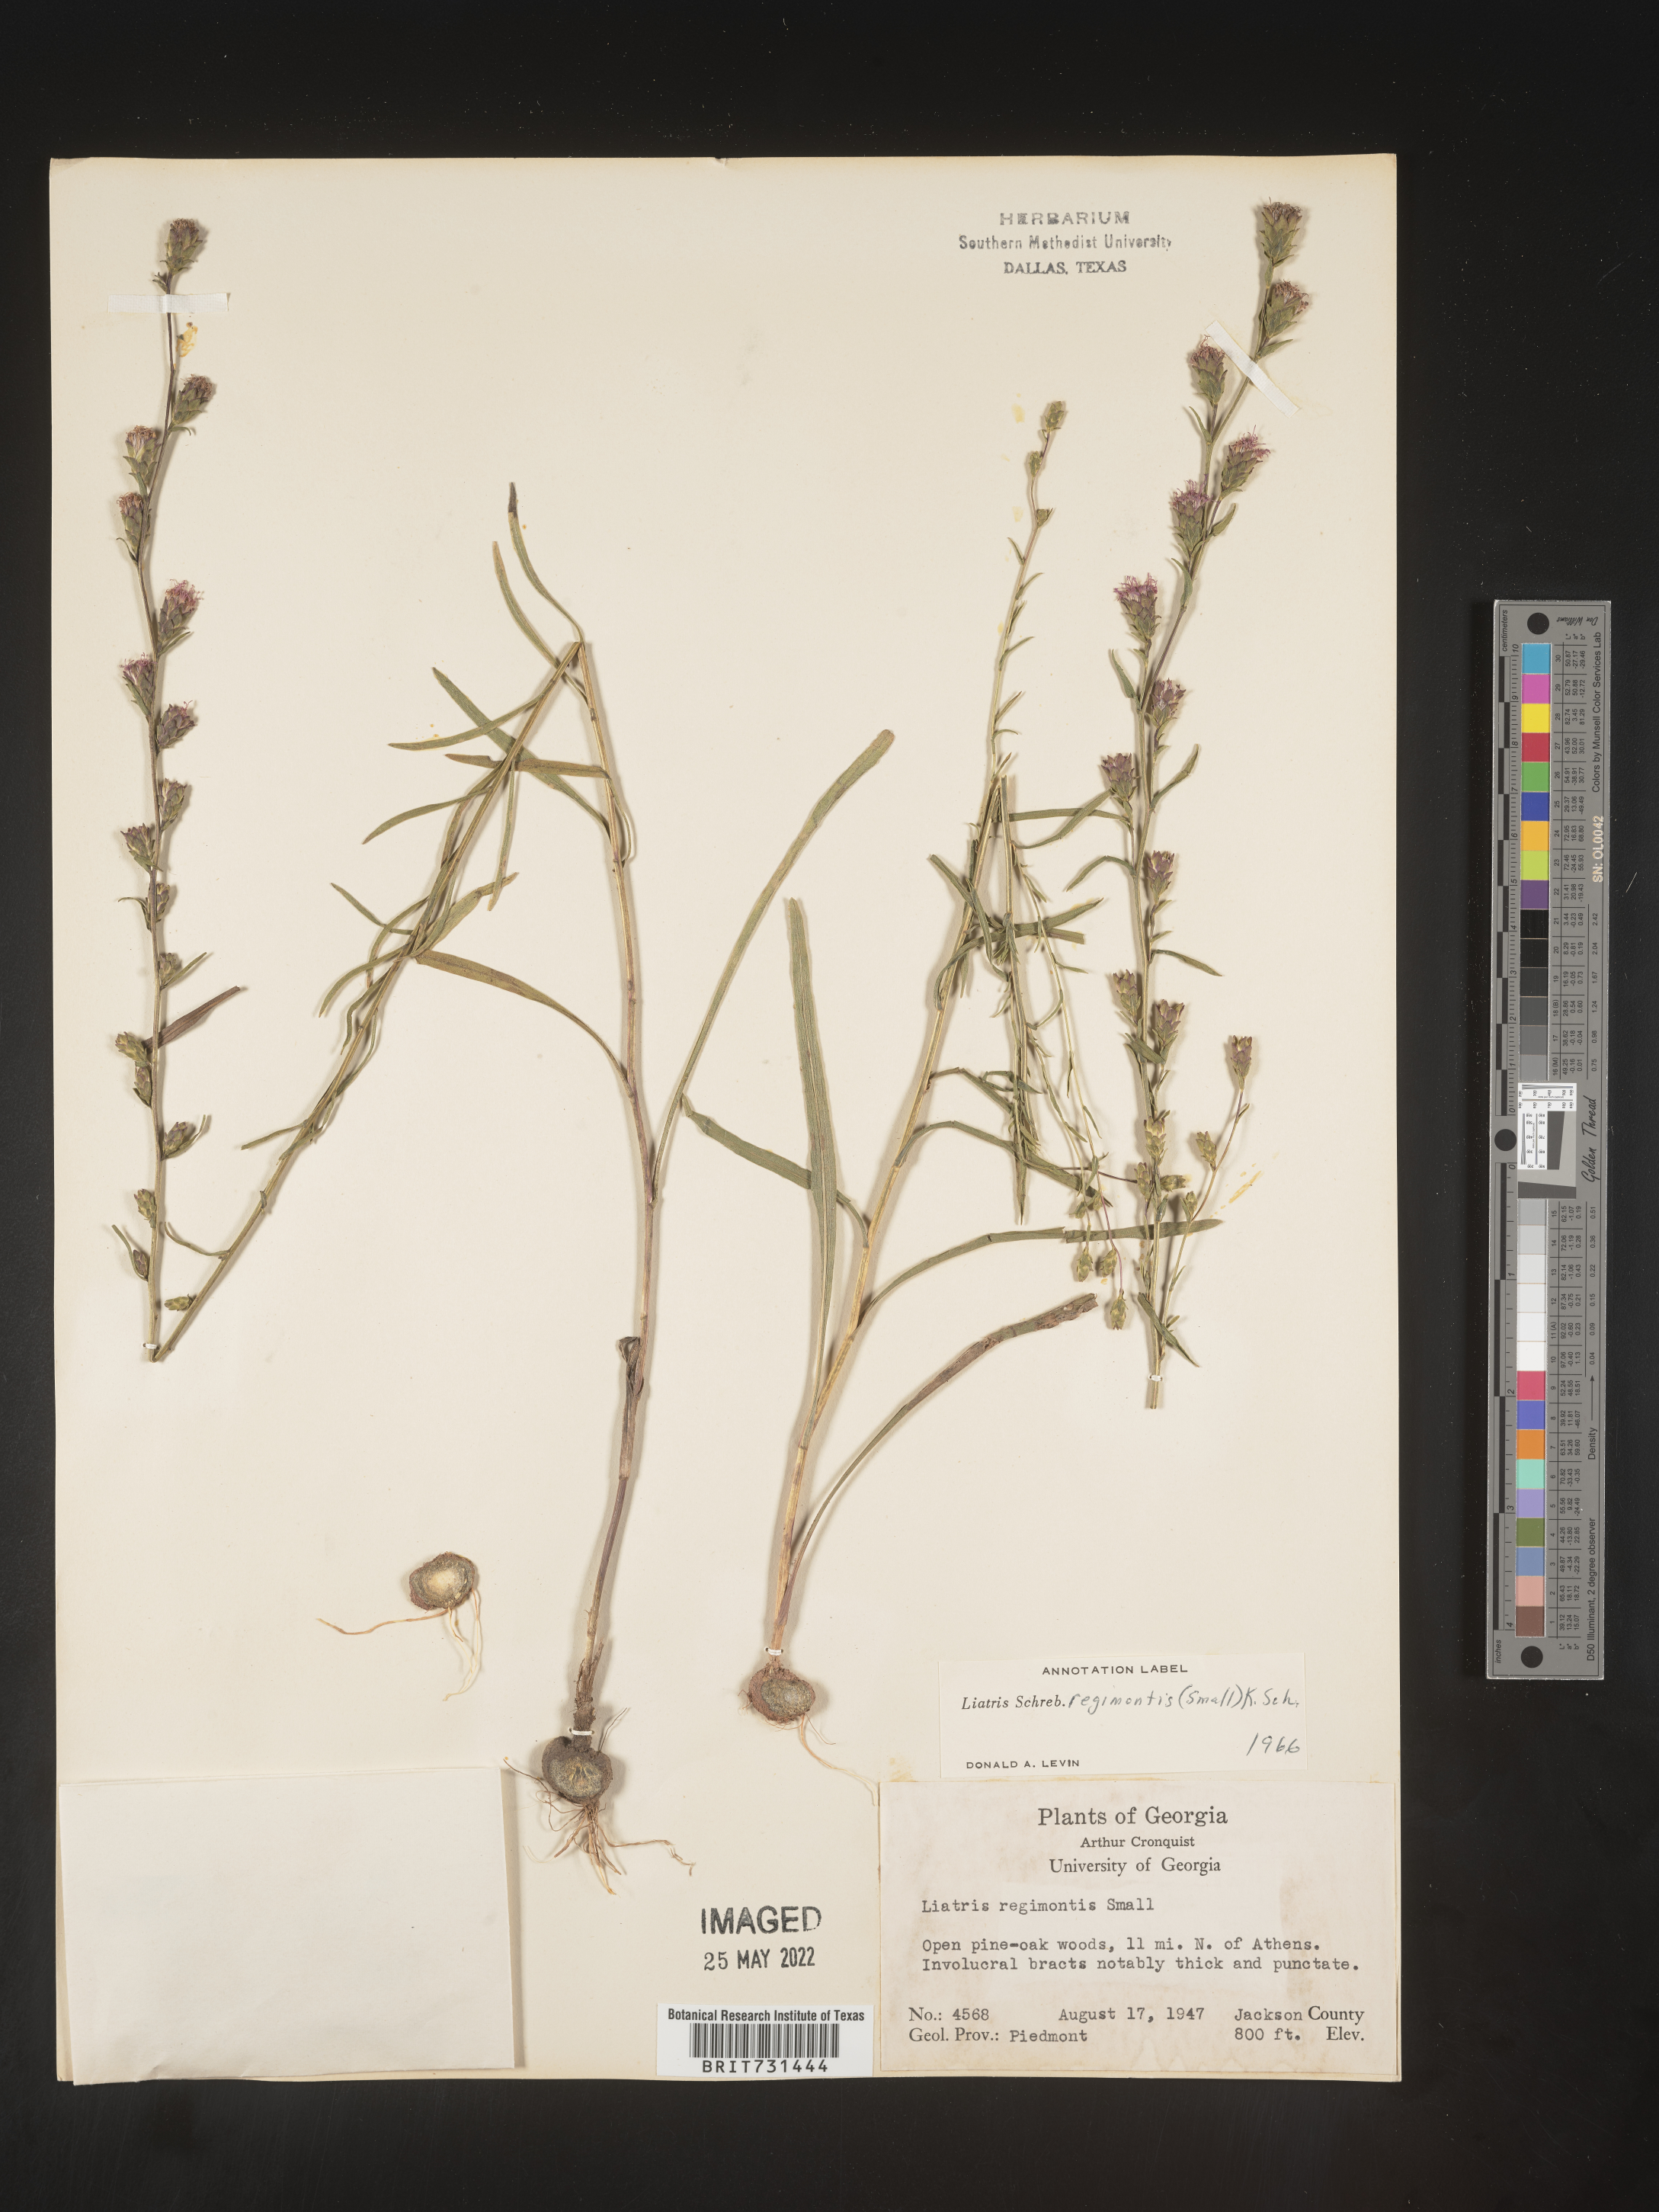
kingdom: Plantae
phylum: Tracheophyta
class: Magnoliopsida
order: Asterales
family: Asteraceae
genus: Liatris
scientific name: Liatris virgata
